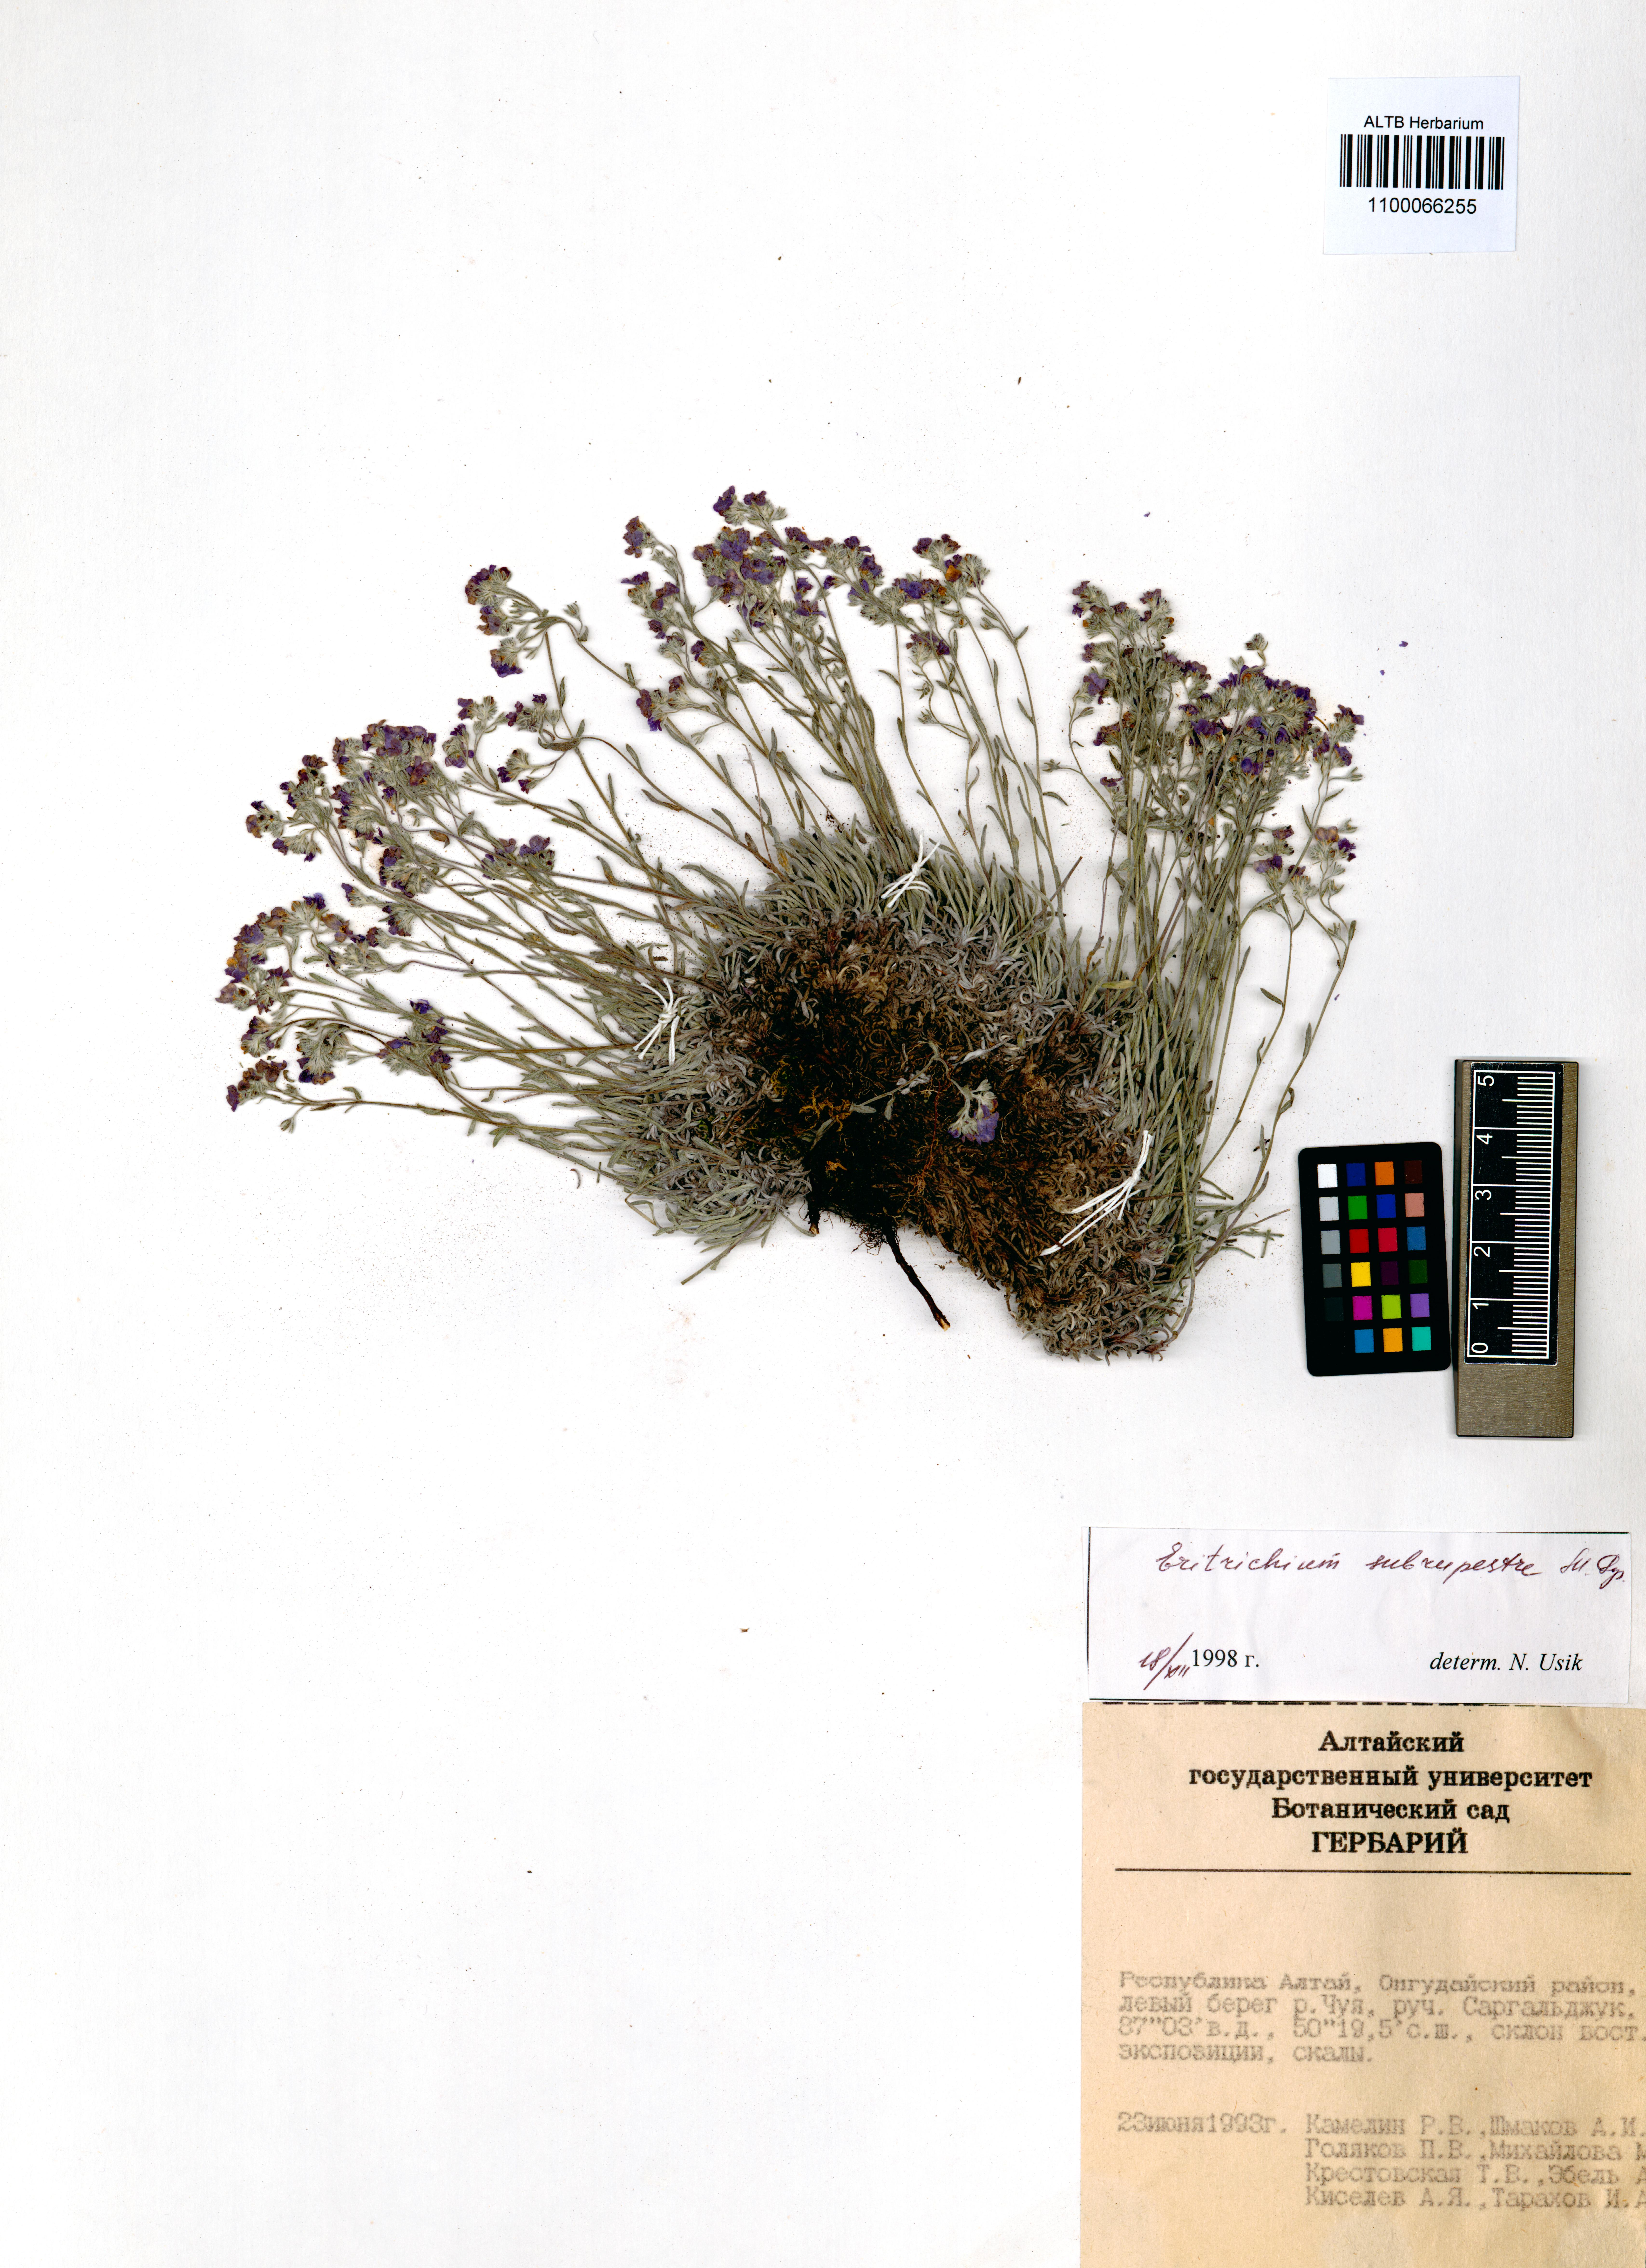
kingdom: Plantae
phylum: Tracheophyta
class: Magnoliopsida
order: Boraginales
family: Boraginaceae
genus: Eritrichium
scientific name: Eritrichium pauciflorum
